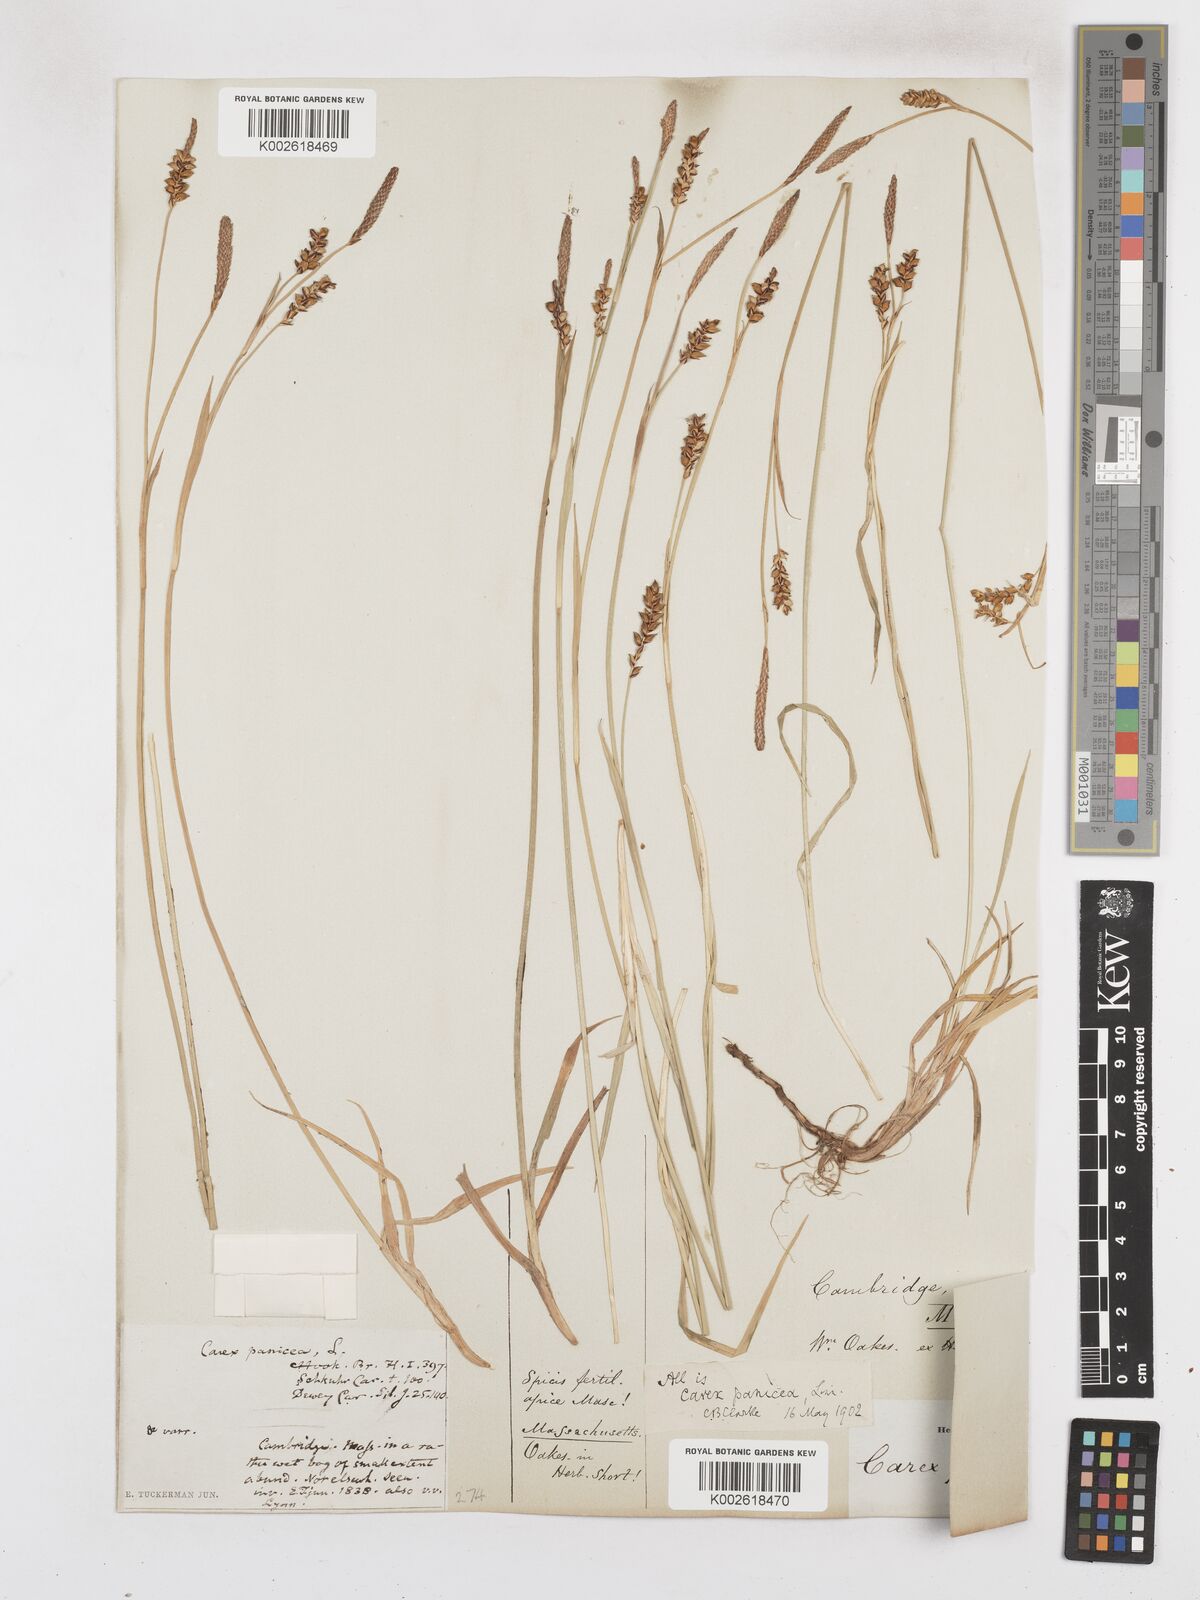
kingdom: Plantae
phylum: Tracheophyta
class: Liliopsida
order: Poales
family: Cyperaceae
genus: Carex
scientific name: Carex panicea
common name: Carnation sedge
